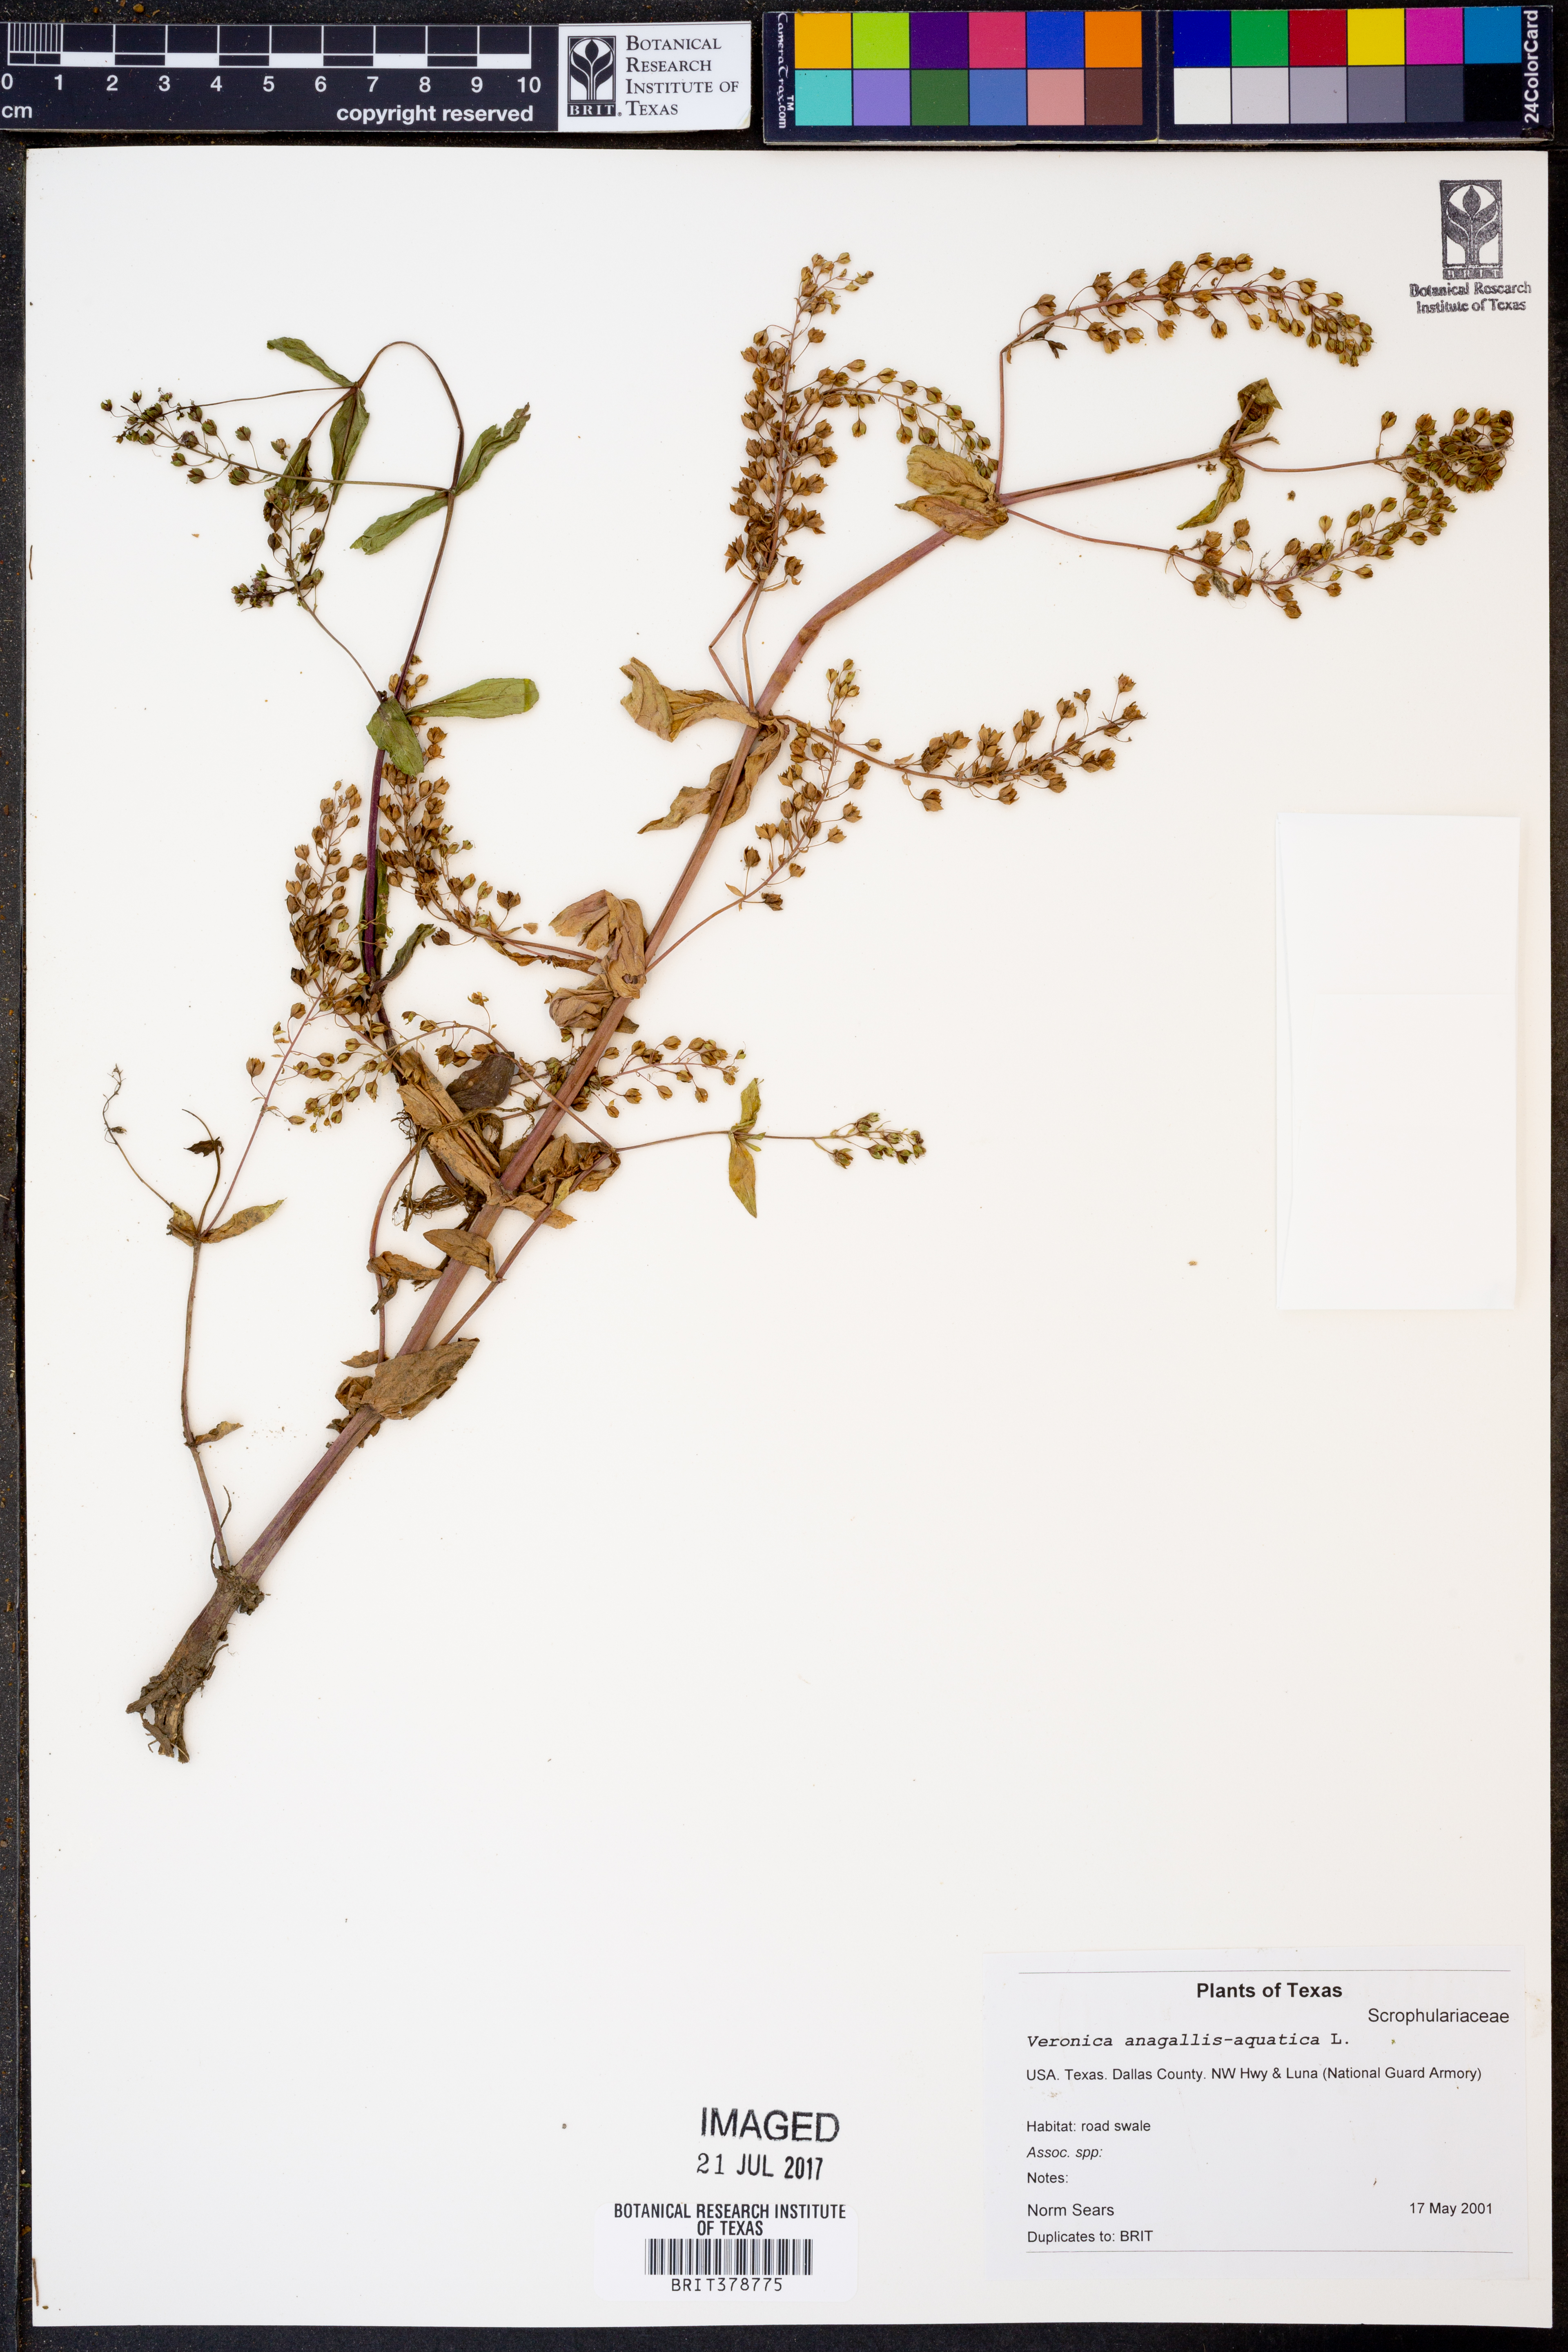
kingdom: Plantae
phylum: Tracheophyta
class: Magnoliopsida
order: Lamiales
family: Plantaginaceae
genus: Veronica
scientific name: Veronica anagallis-aquatica
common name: Water speedwell
